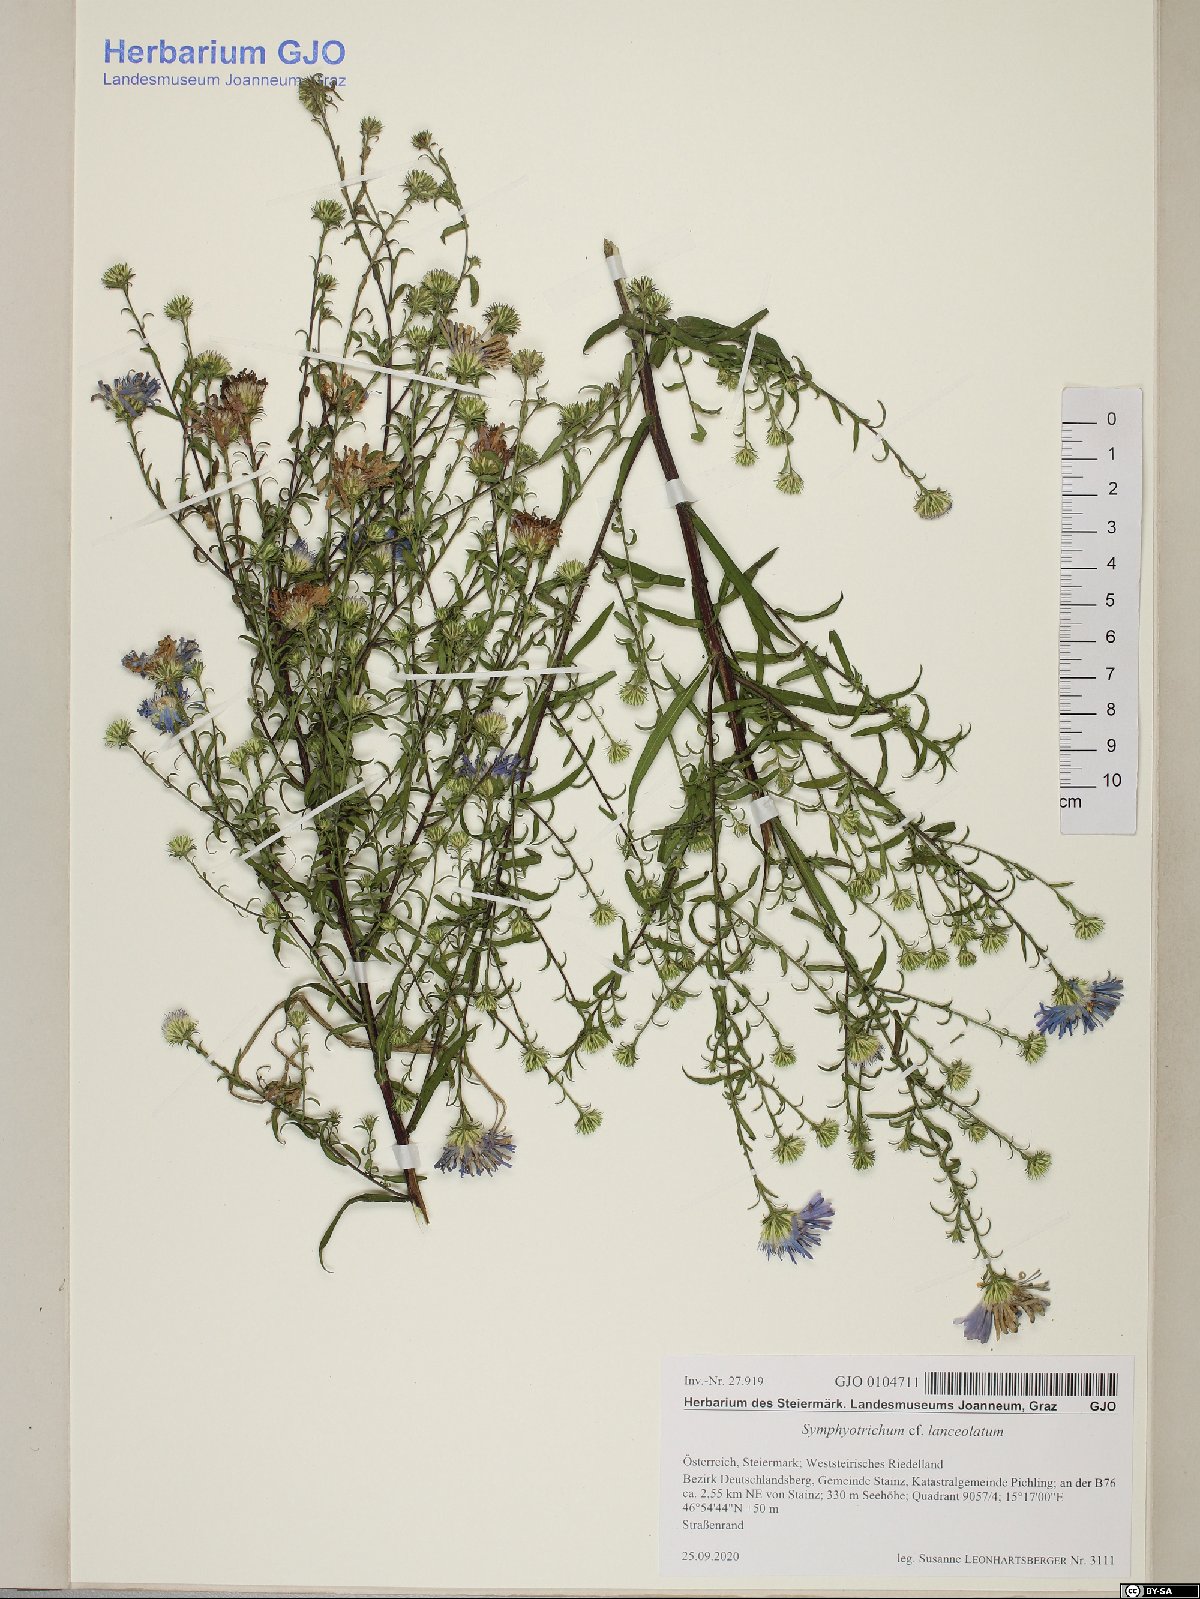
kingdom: Plantae
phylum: Tracheophyta
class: Magnoliopsida
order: Asterales
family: Asteraceae
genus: Symphyotrichum
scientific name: Symphyotrichum lanceolatum
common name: Panicled aster
